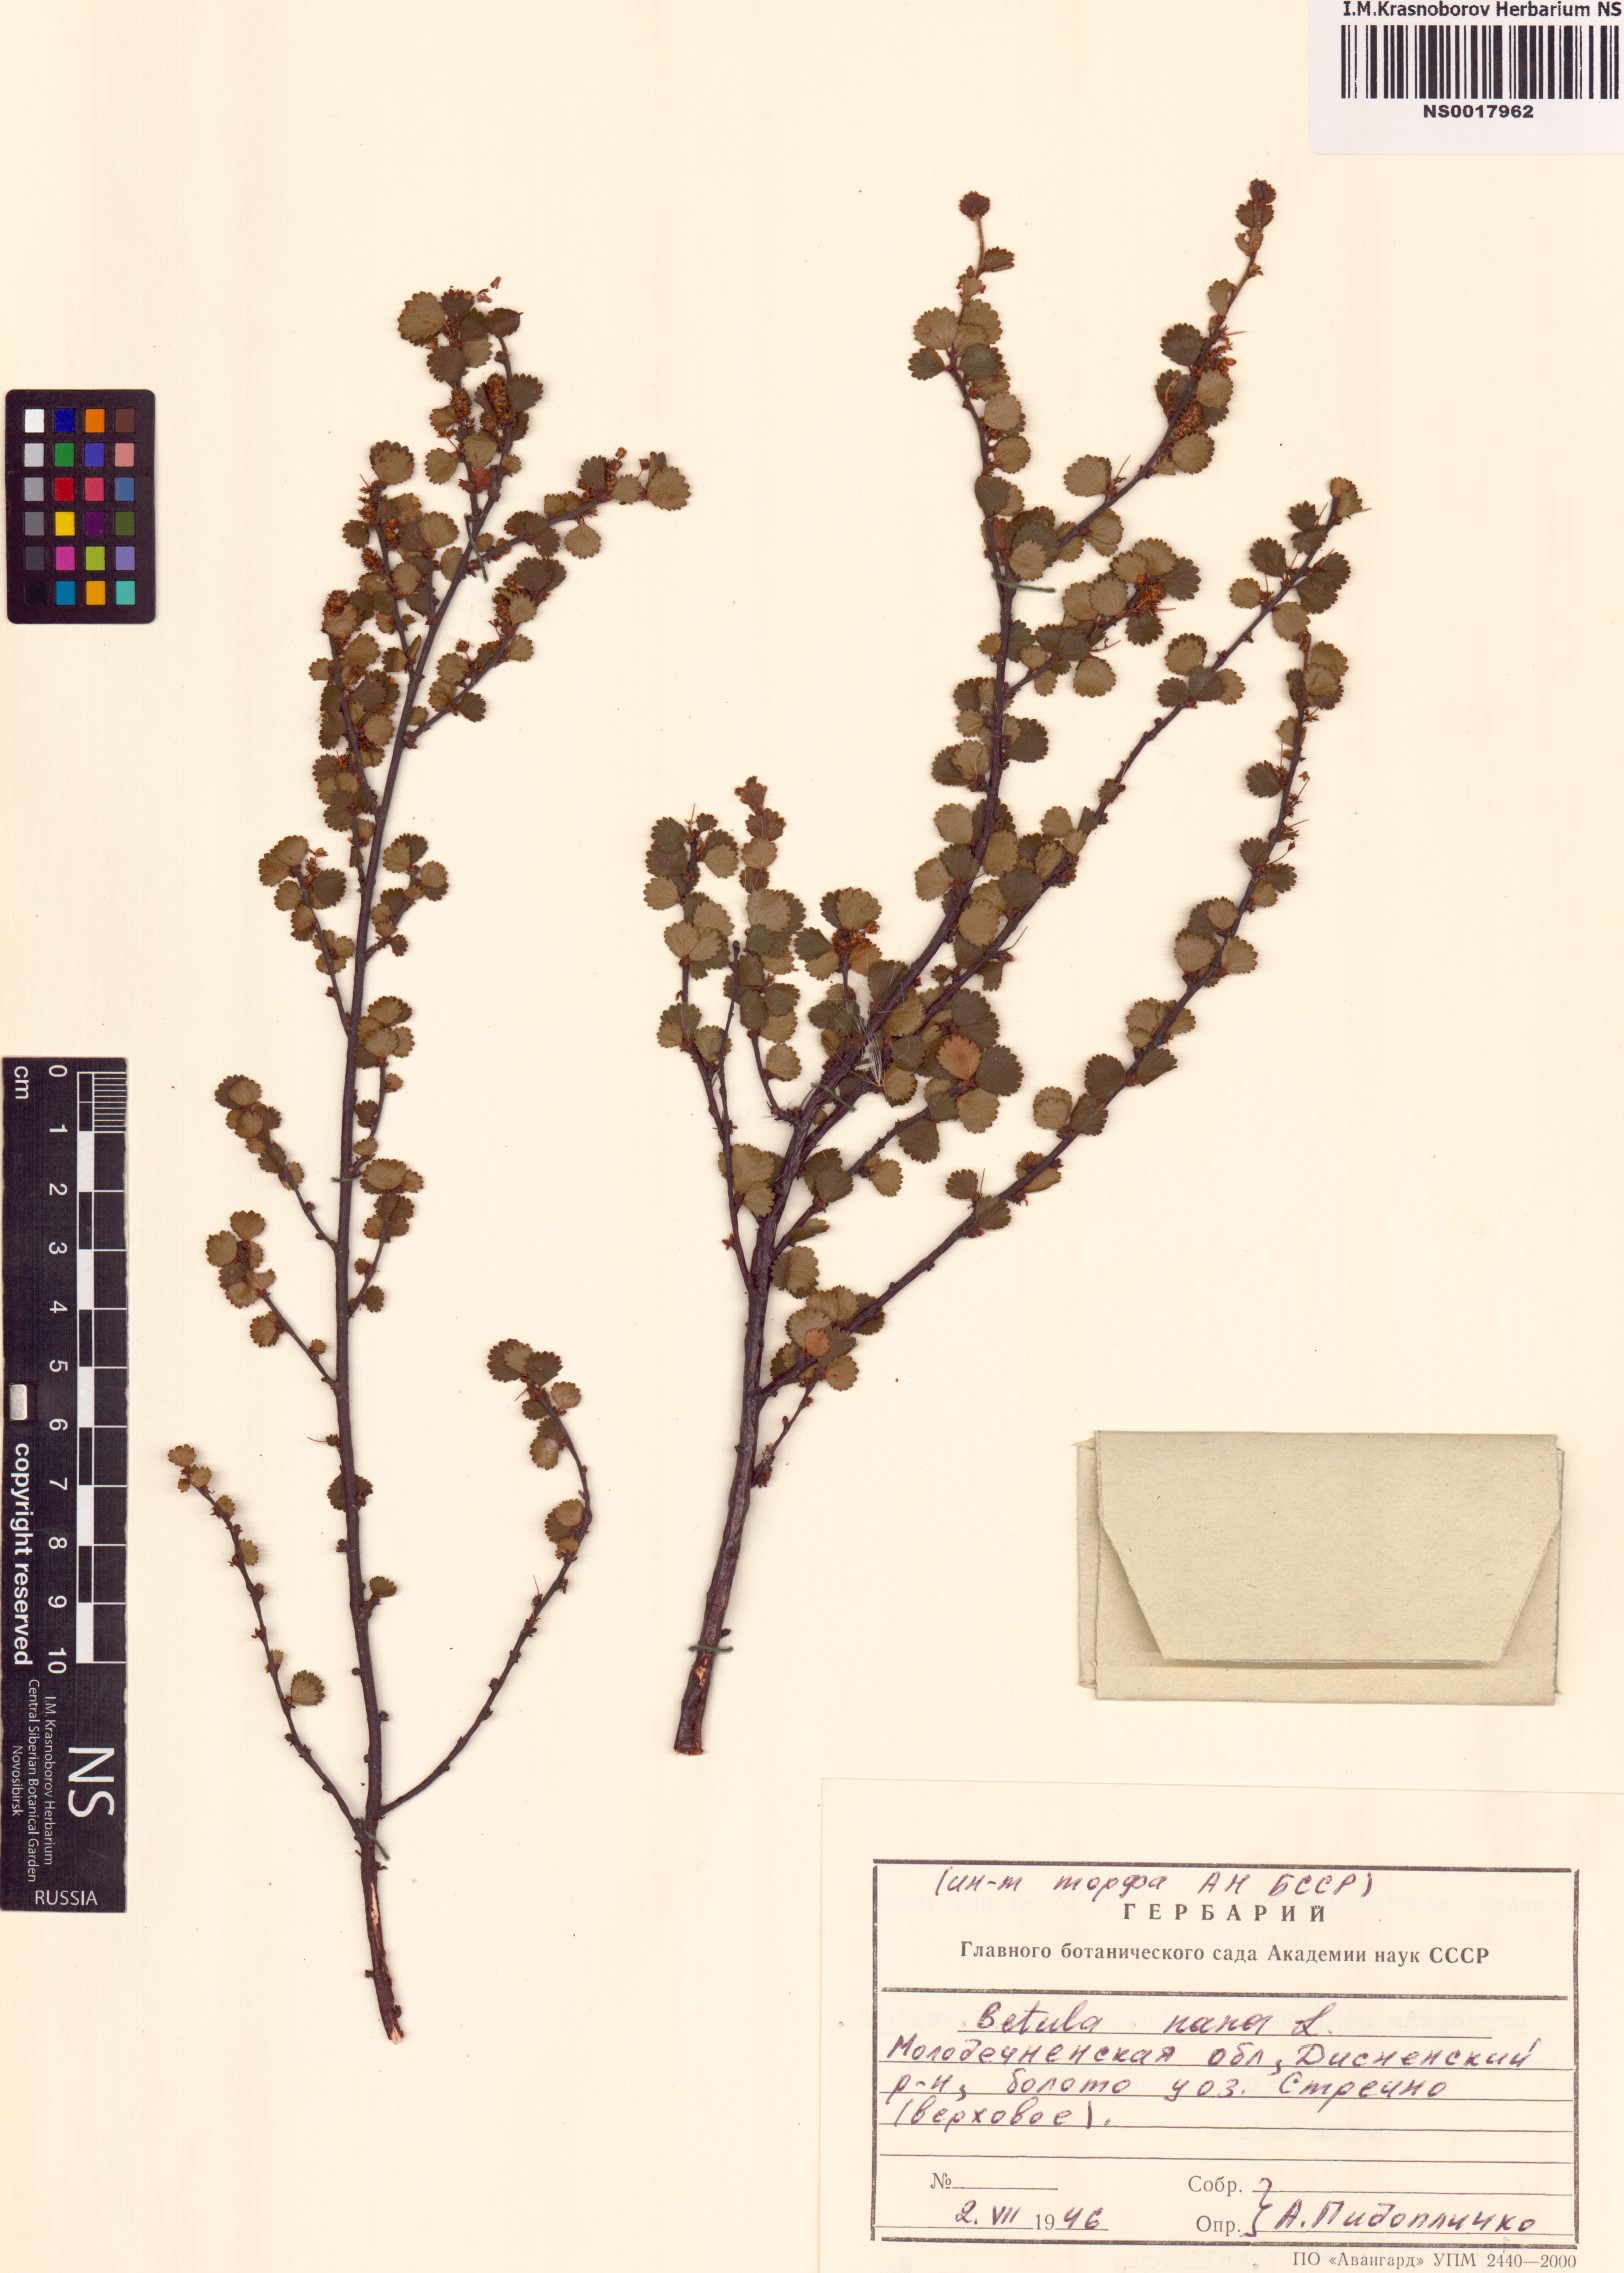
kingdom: Plantae
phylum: Tracheophyta
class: Magnoliopsida
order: Fagales
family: Betulaceae
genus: Betula
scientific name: Betula nana
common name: Arctic dwarf birch
